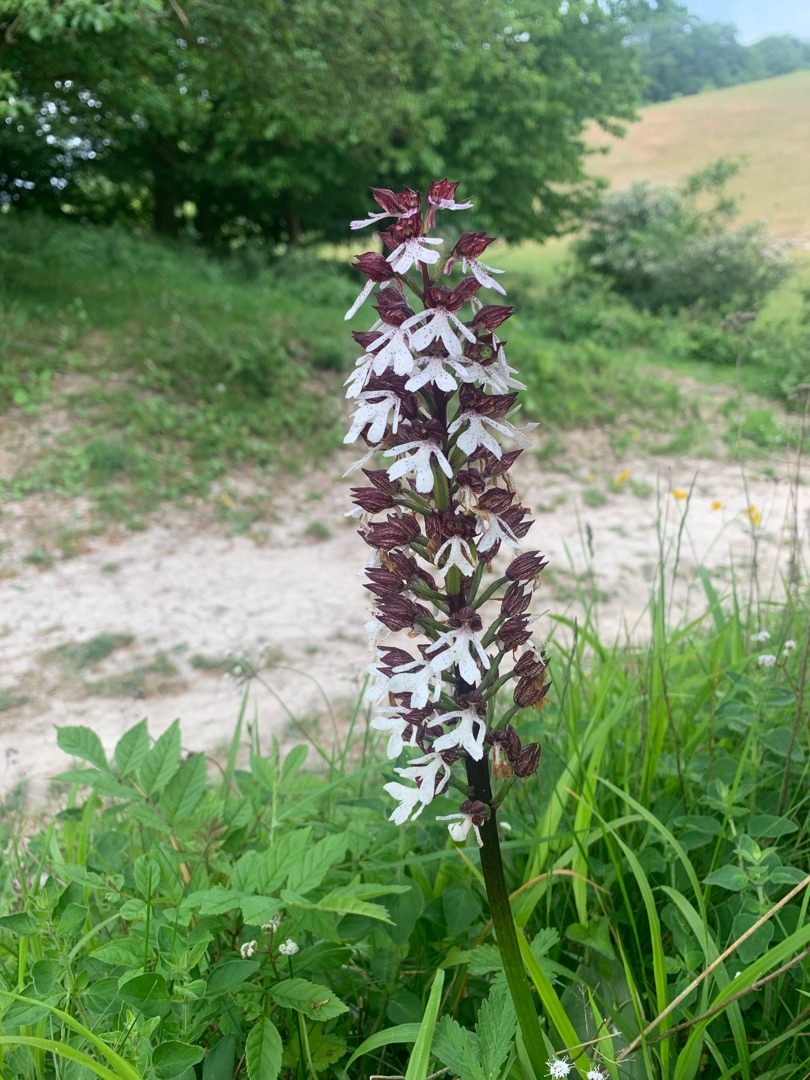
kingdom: Plantae
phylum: Tracheophyta
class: Liliopsida
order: Asparagales
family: Orchidaceae
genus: Orchis
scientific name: Orchis purpurea
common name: Stor gøgeurt
